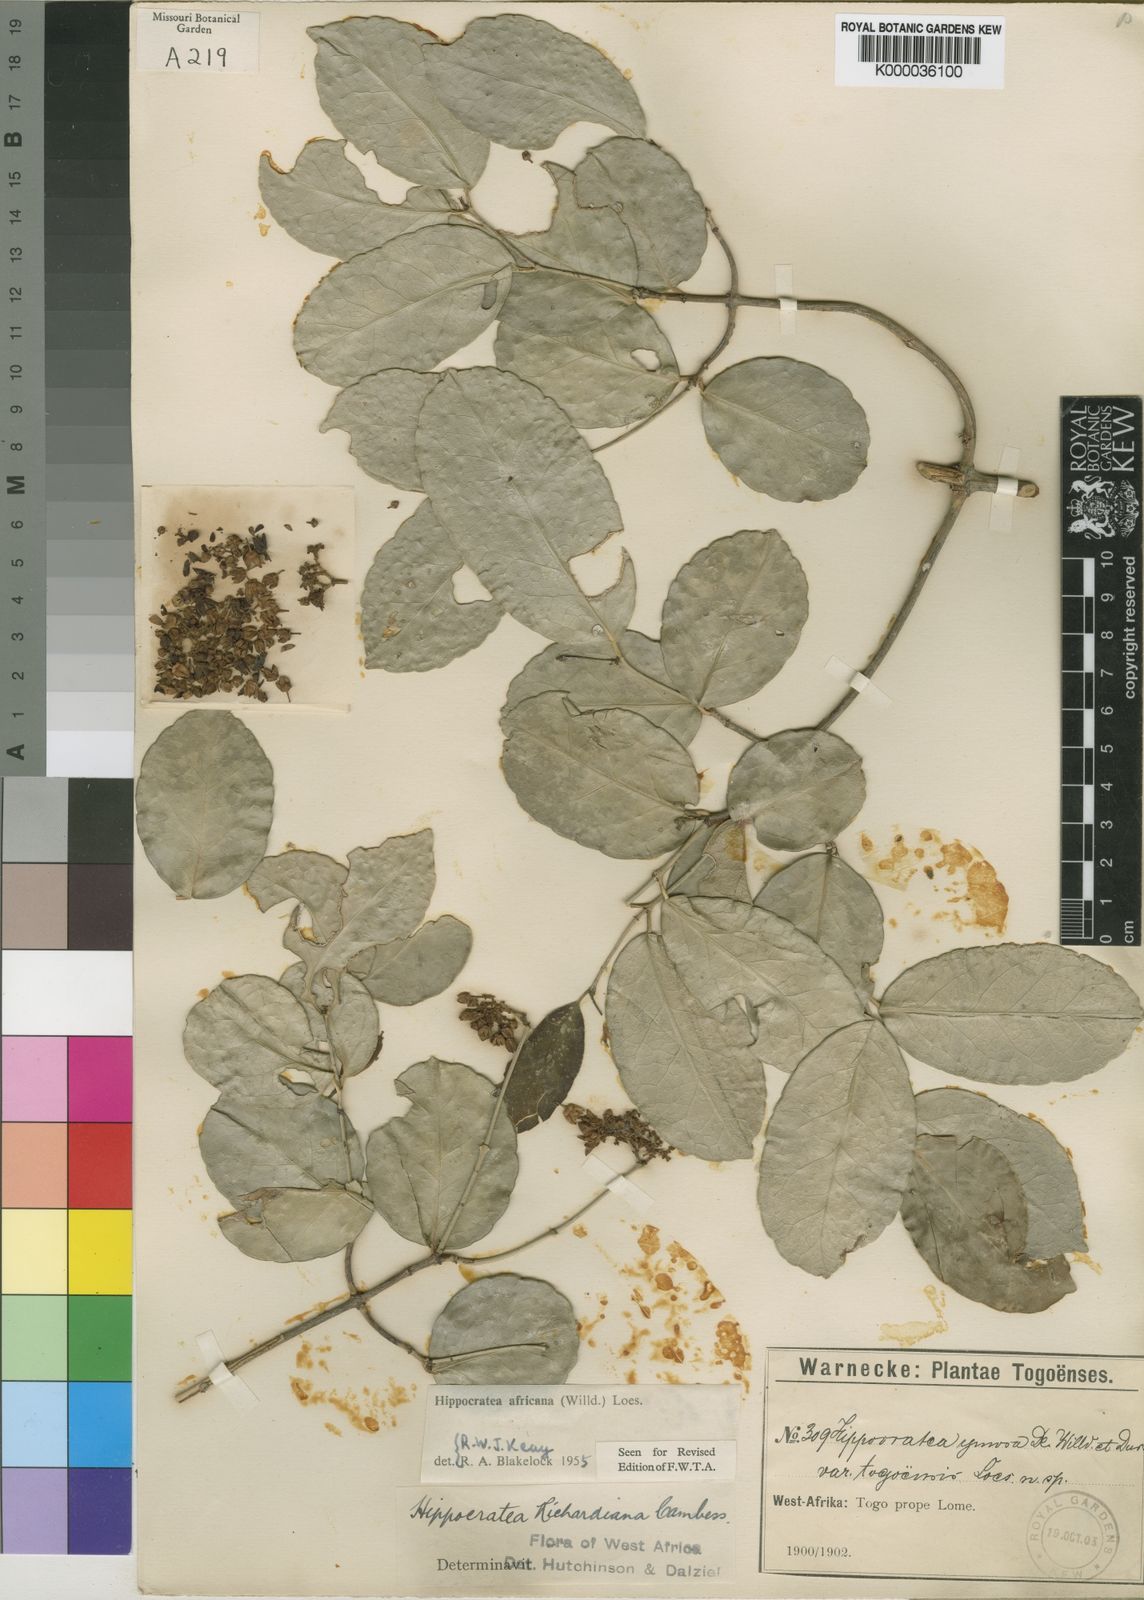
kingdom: Plantae
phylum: Tracheophyta
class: Magnoliopsida
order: Celastrales
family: Celastraceae
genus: Loeseneriella
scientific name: Loeseneriella
